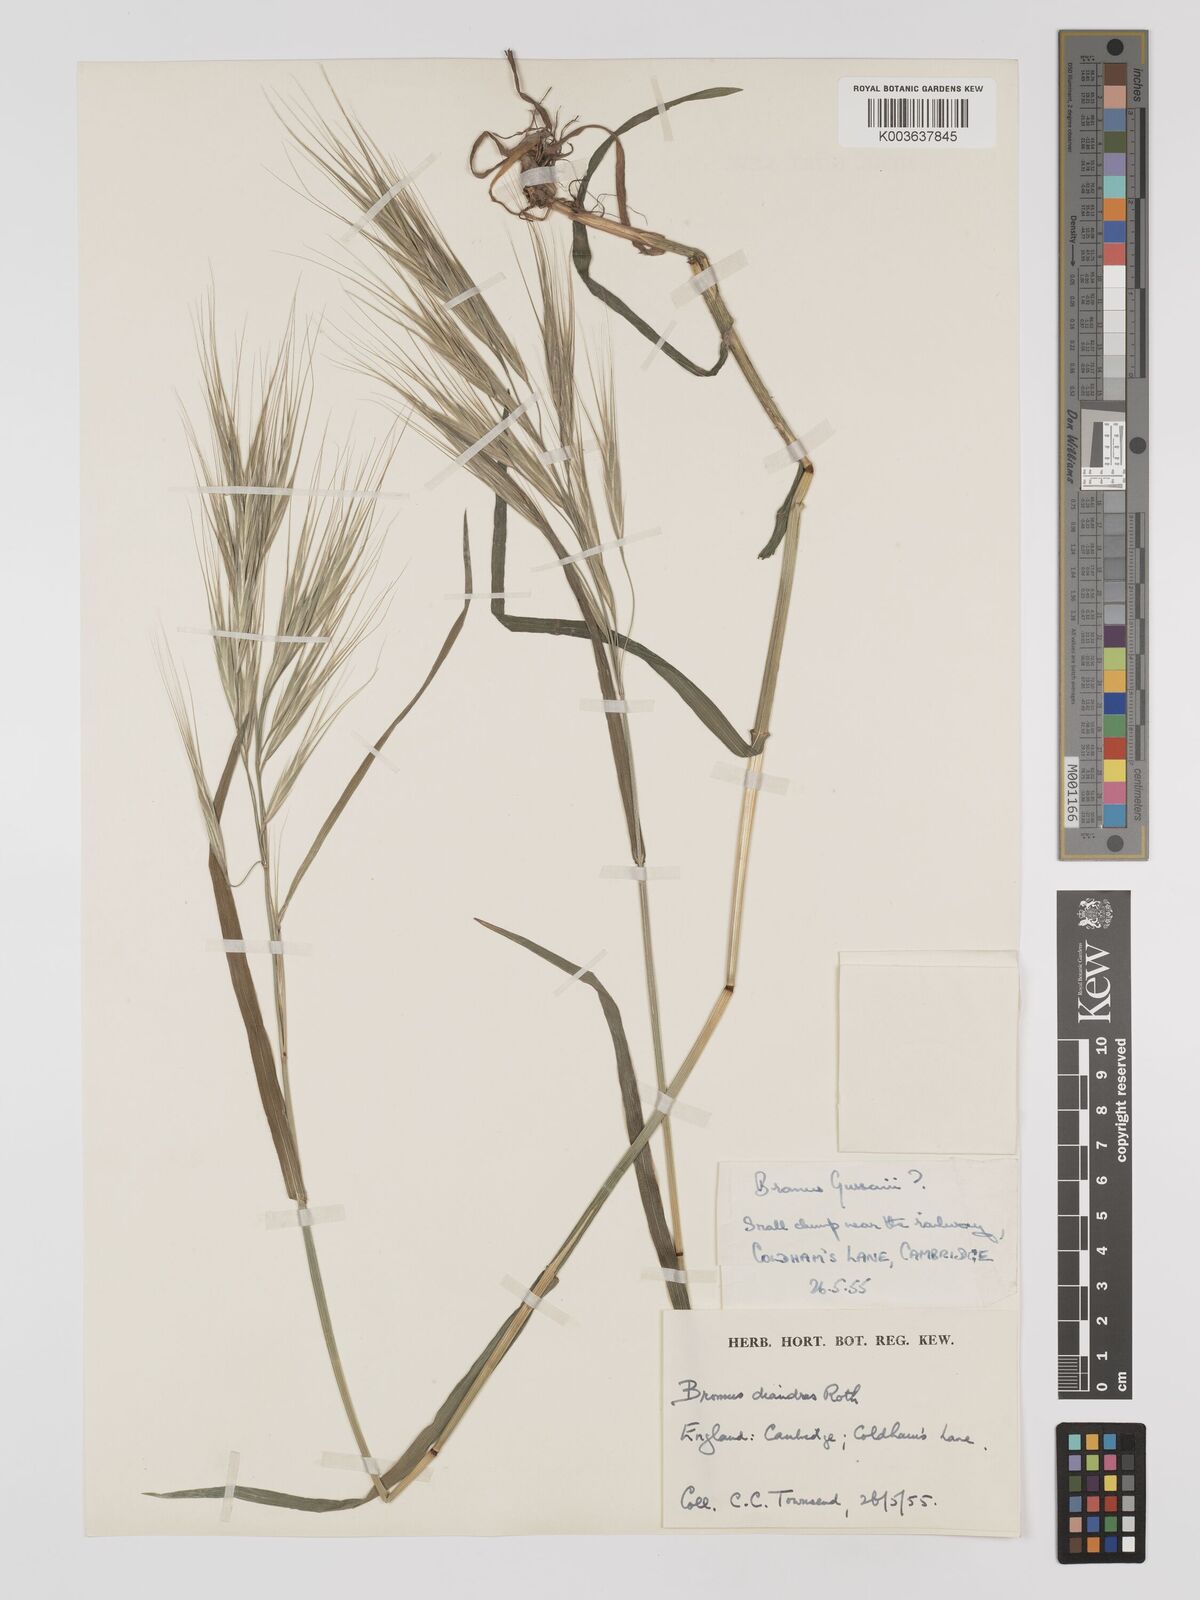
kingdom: Plantae
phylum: Tracheophyta
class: Liliopsida
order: Poales
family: Poaceae
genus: Bromus
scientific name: Bromus
